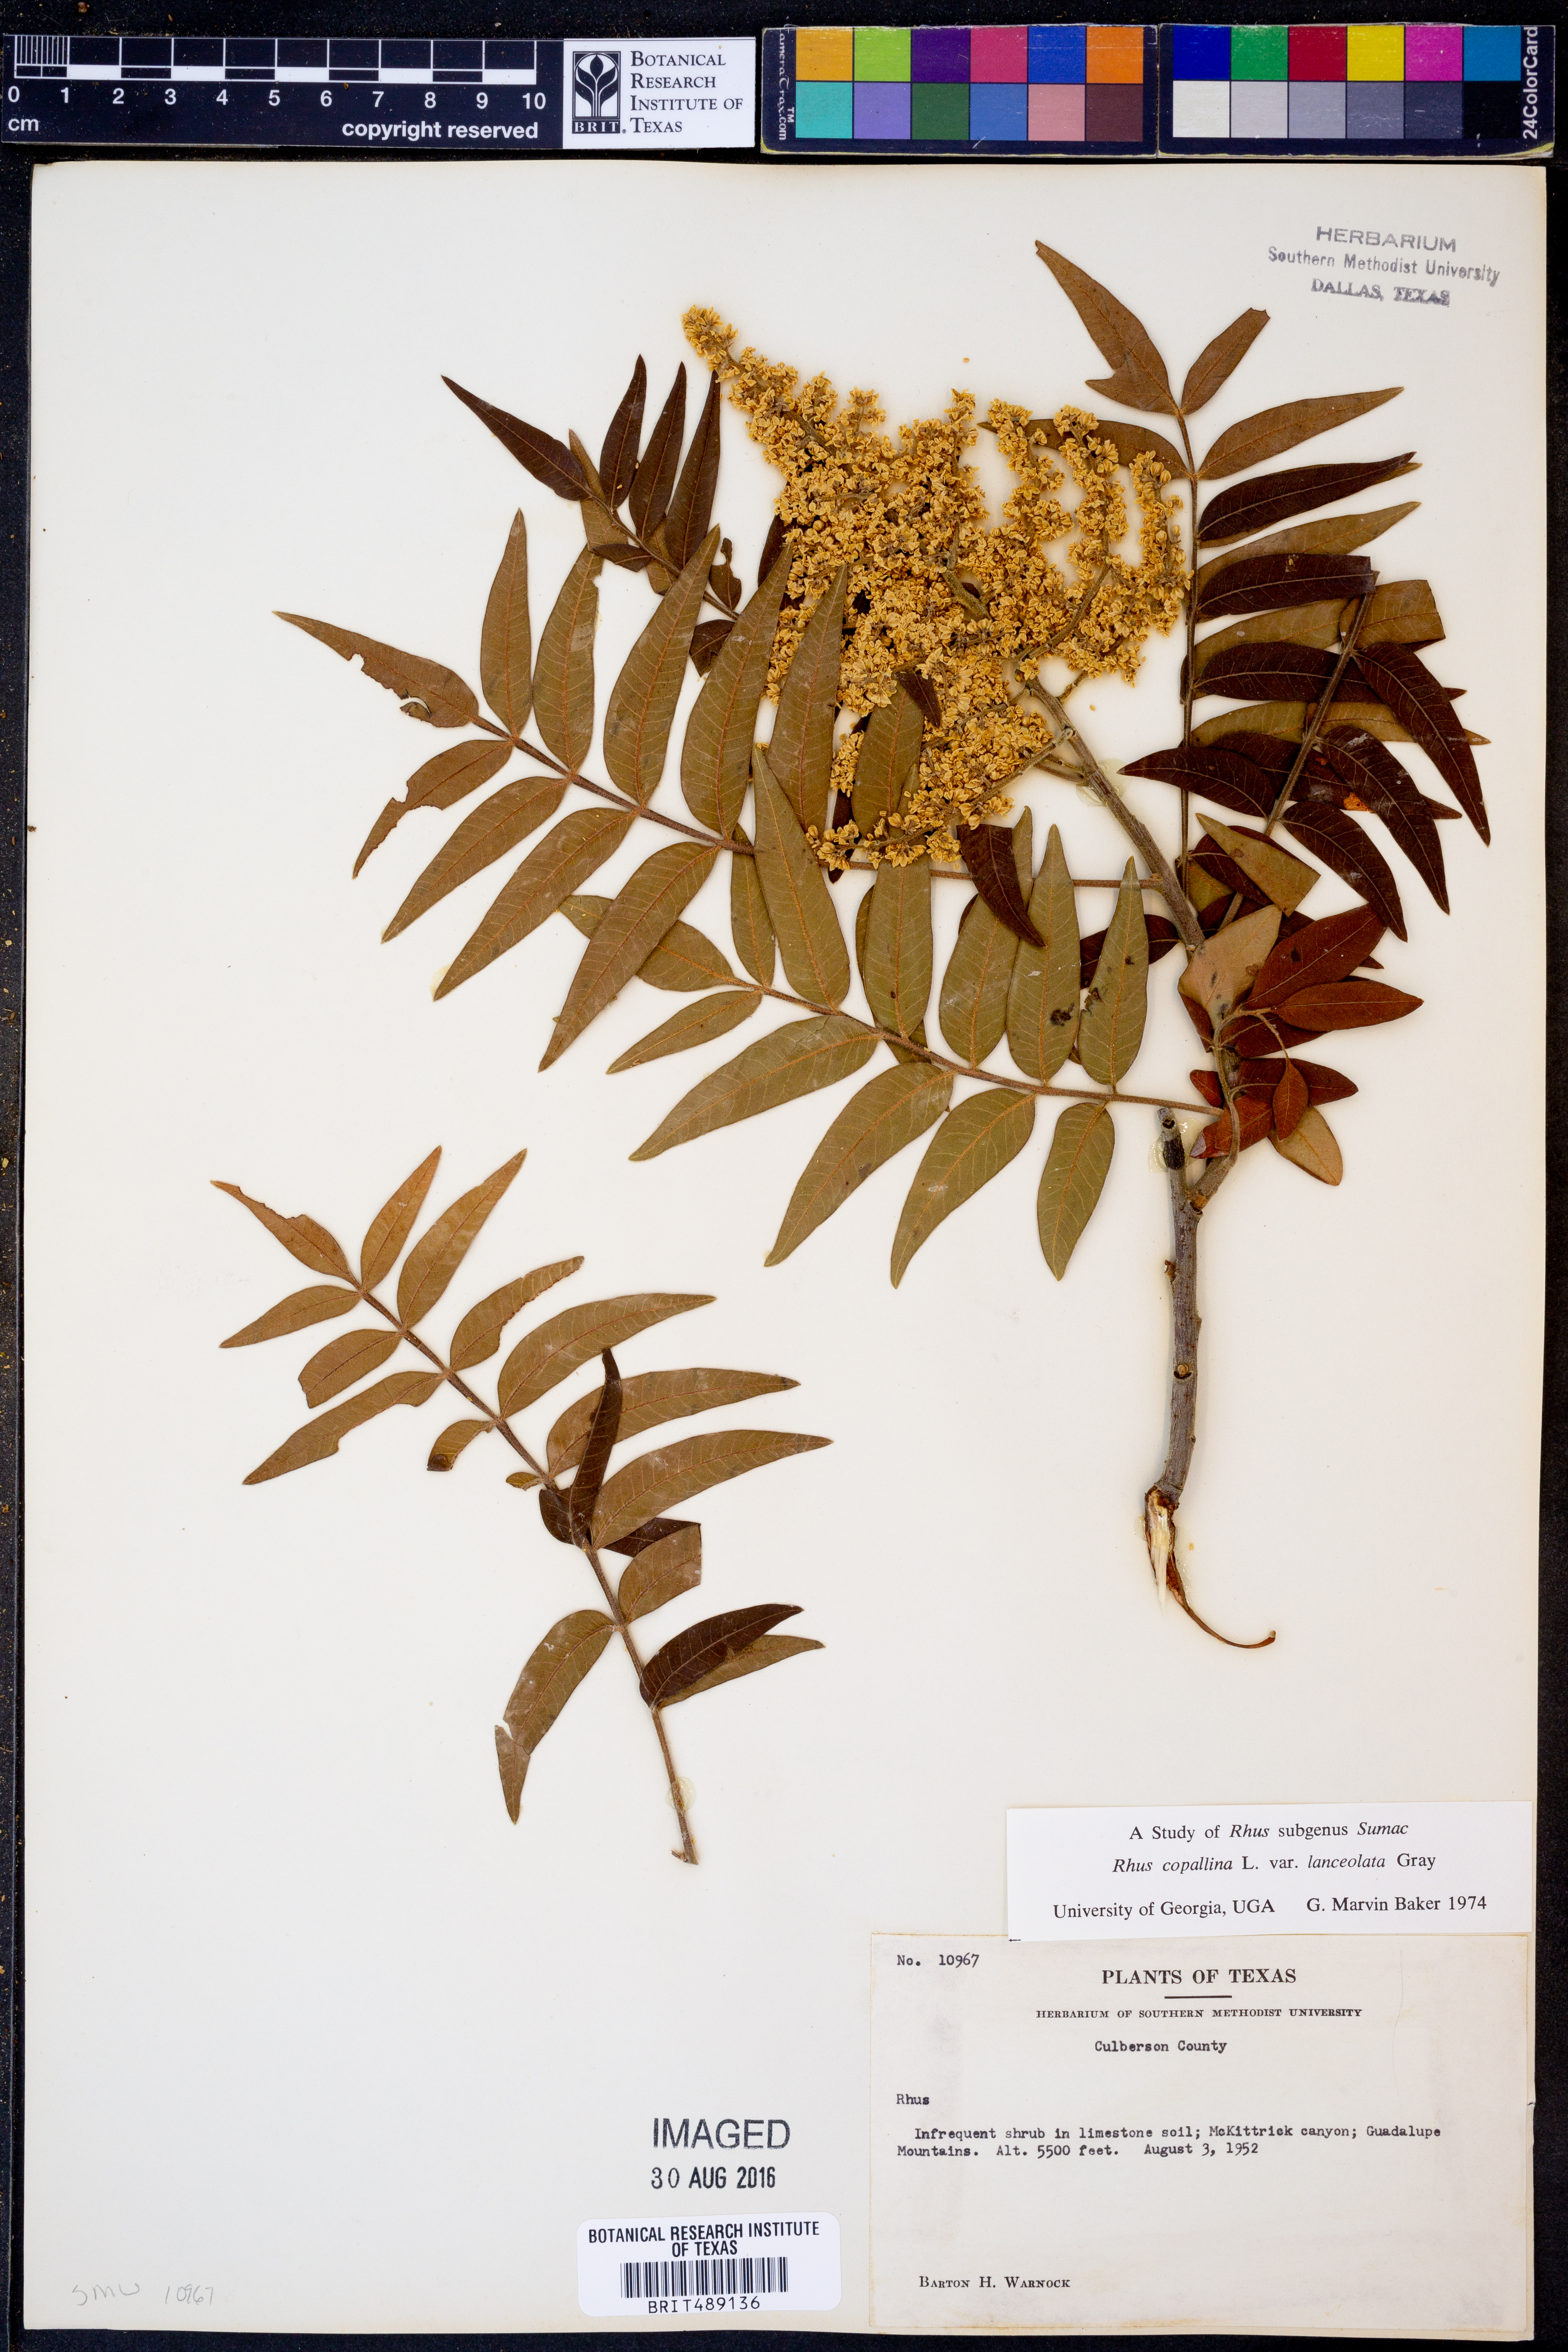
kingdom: Plantae
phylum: Tracheophyta
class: Magnoliopsida
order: Sapindales
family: Anacardiaceae
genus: Rhus
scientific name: Rhus lanceolata
